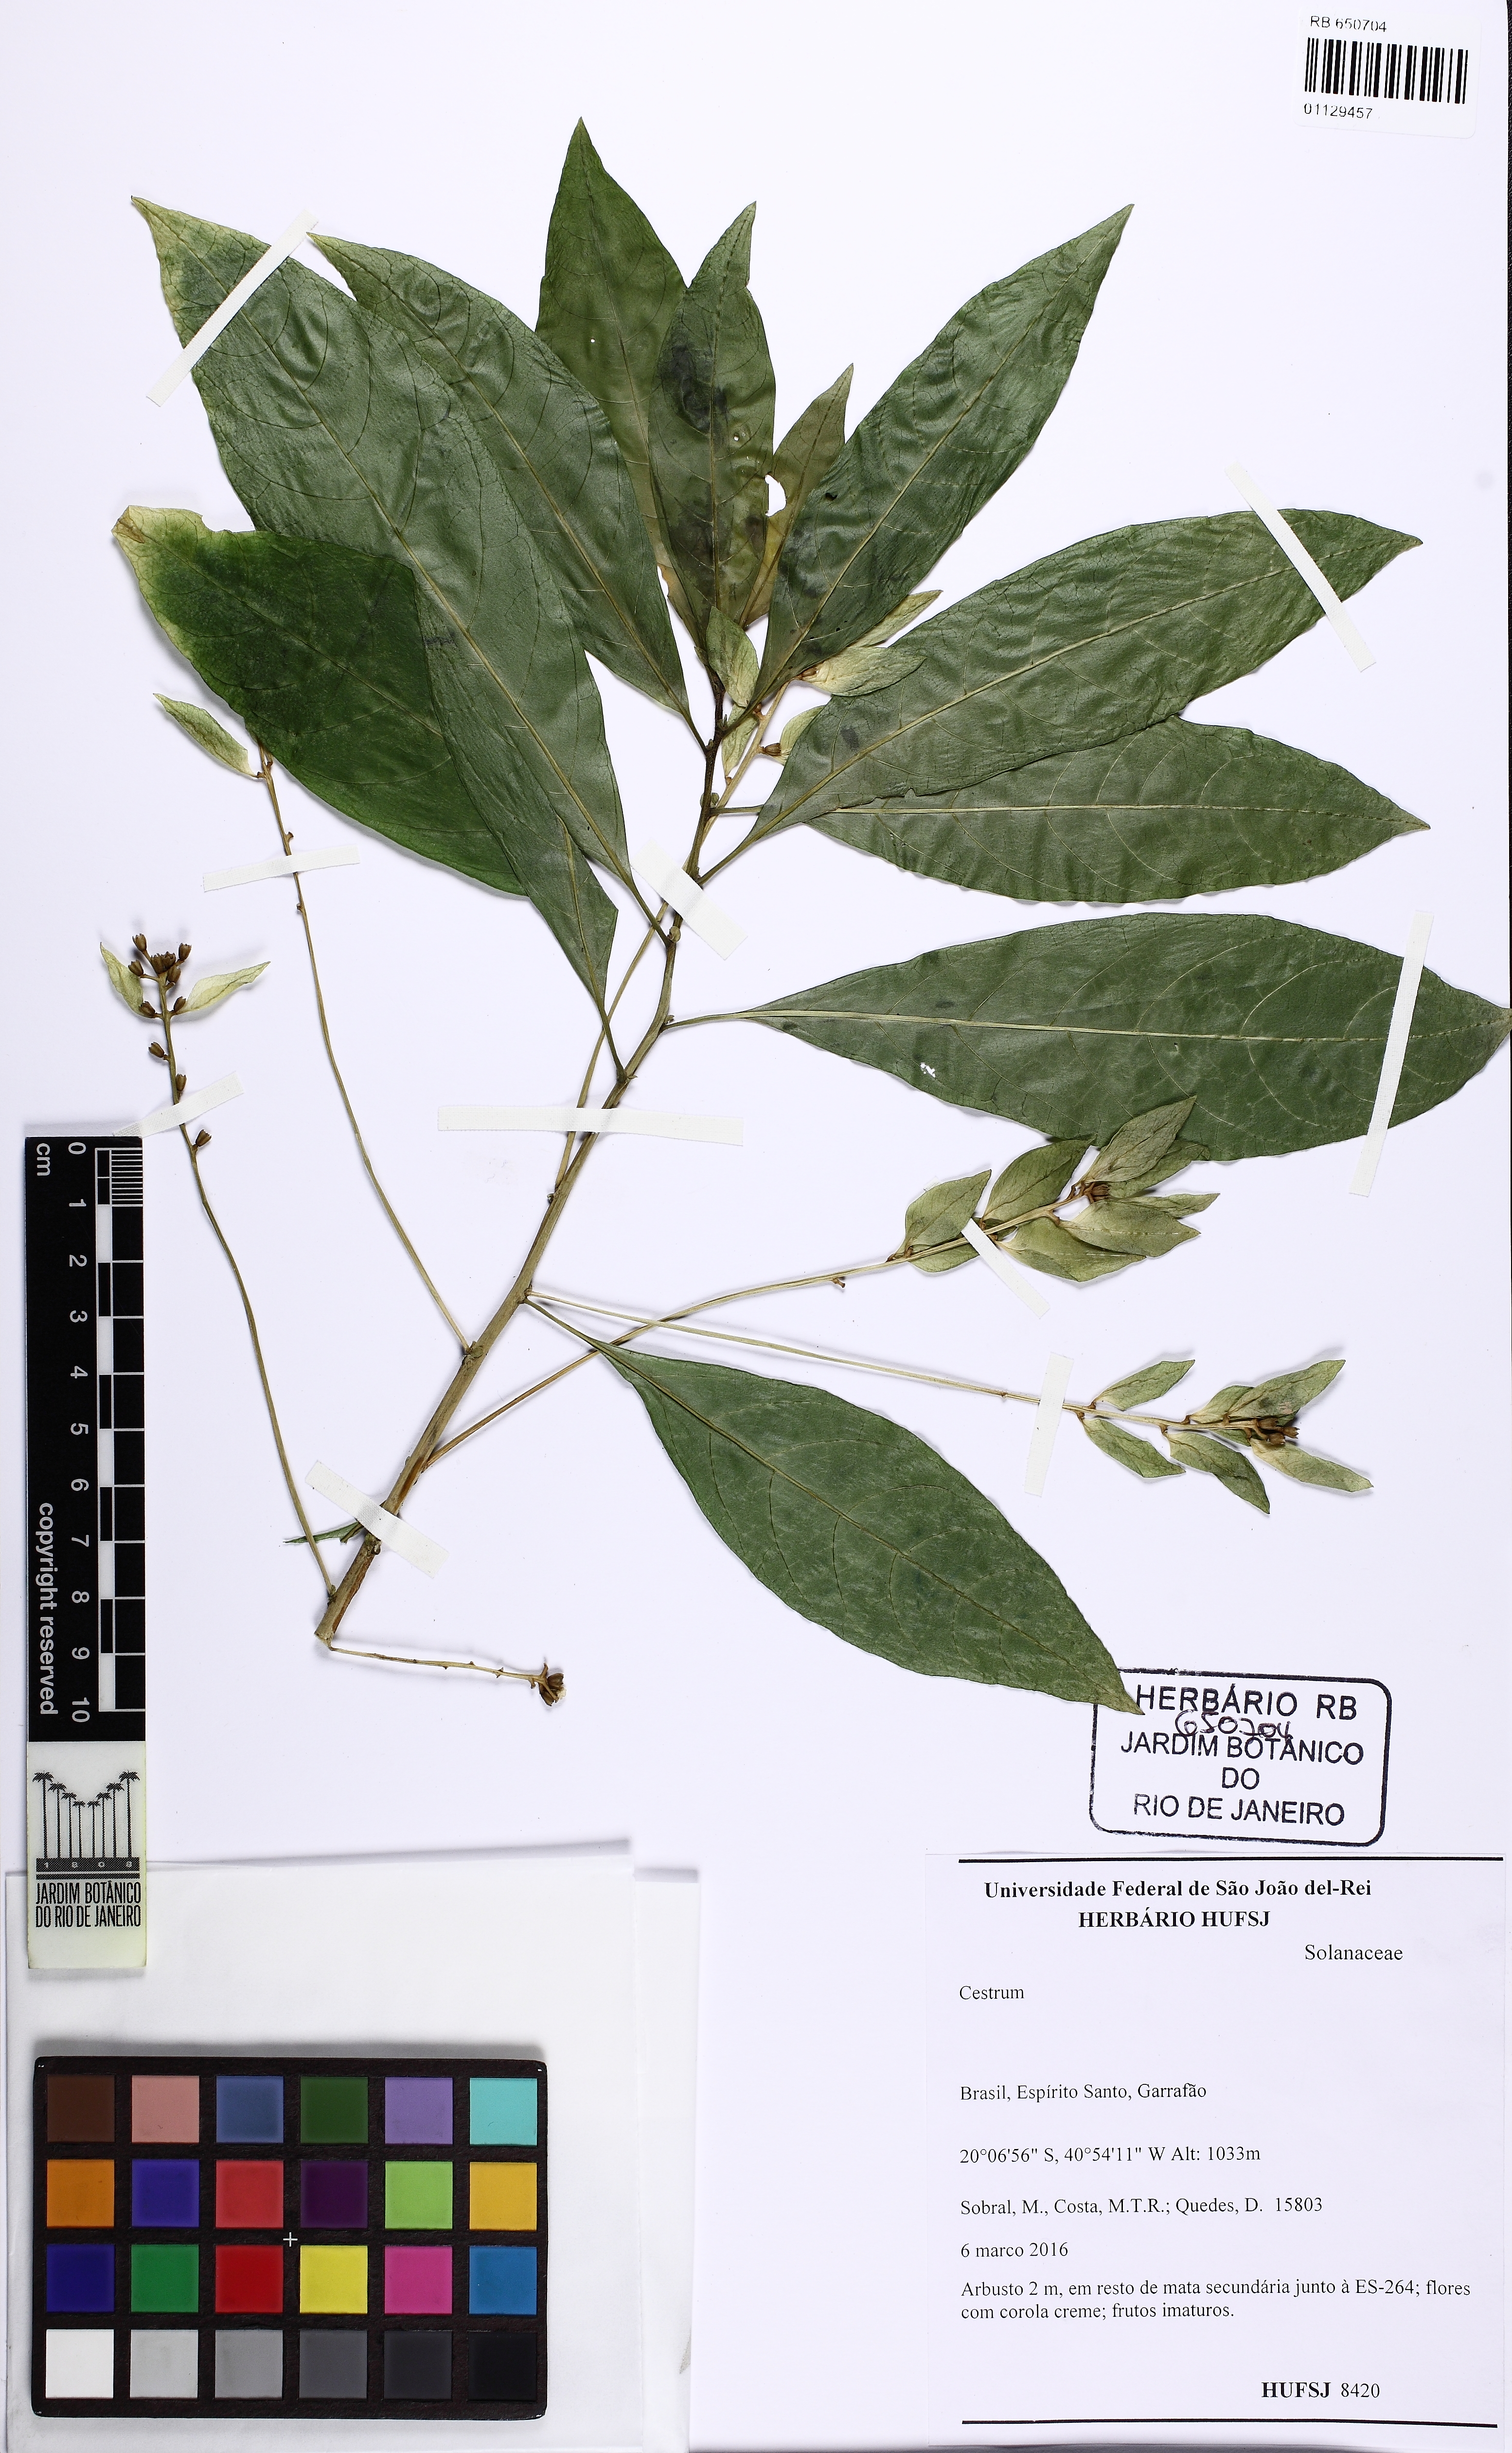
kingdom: Plantae
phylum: Tracheophyta
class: Magnoliopsida
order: Solanales
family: Solanaceae
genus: Cestrum
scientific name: Cestrum
